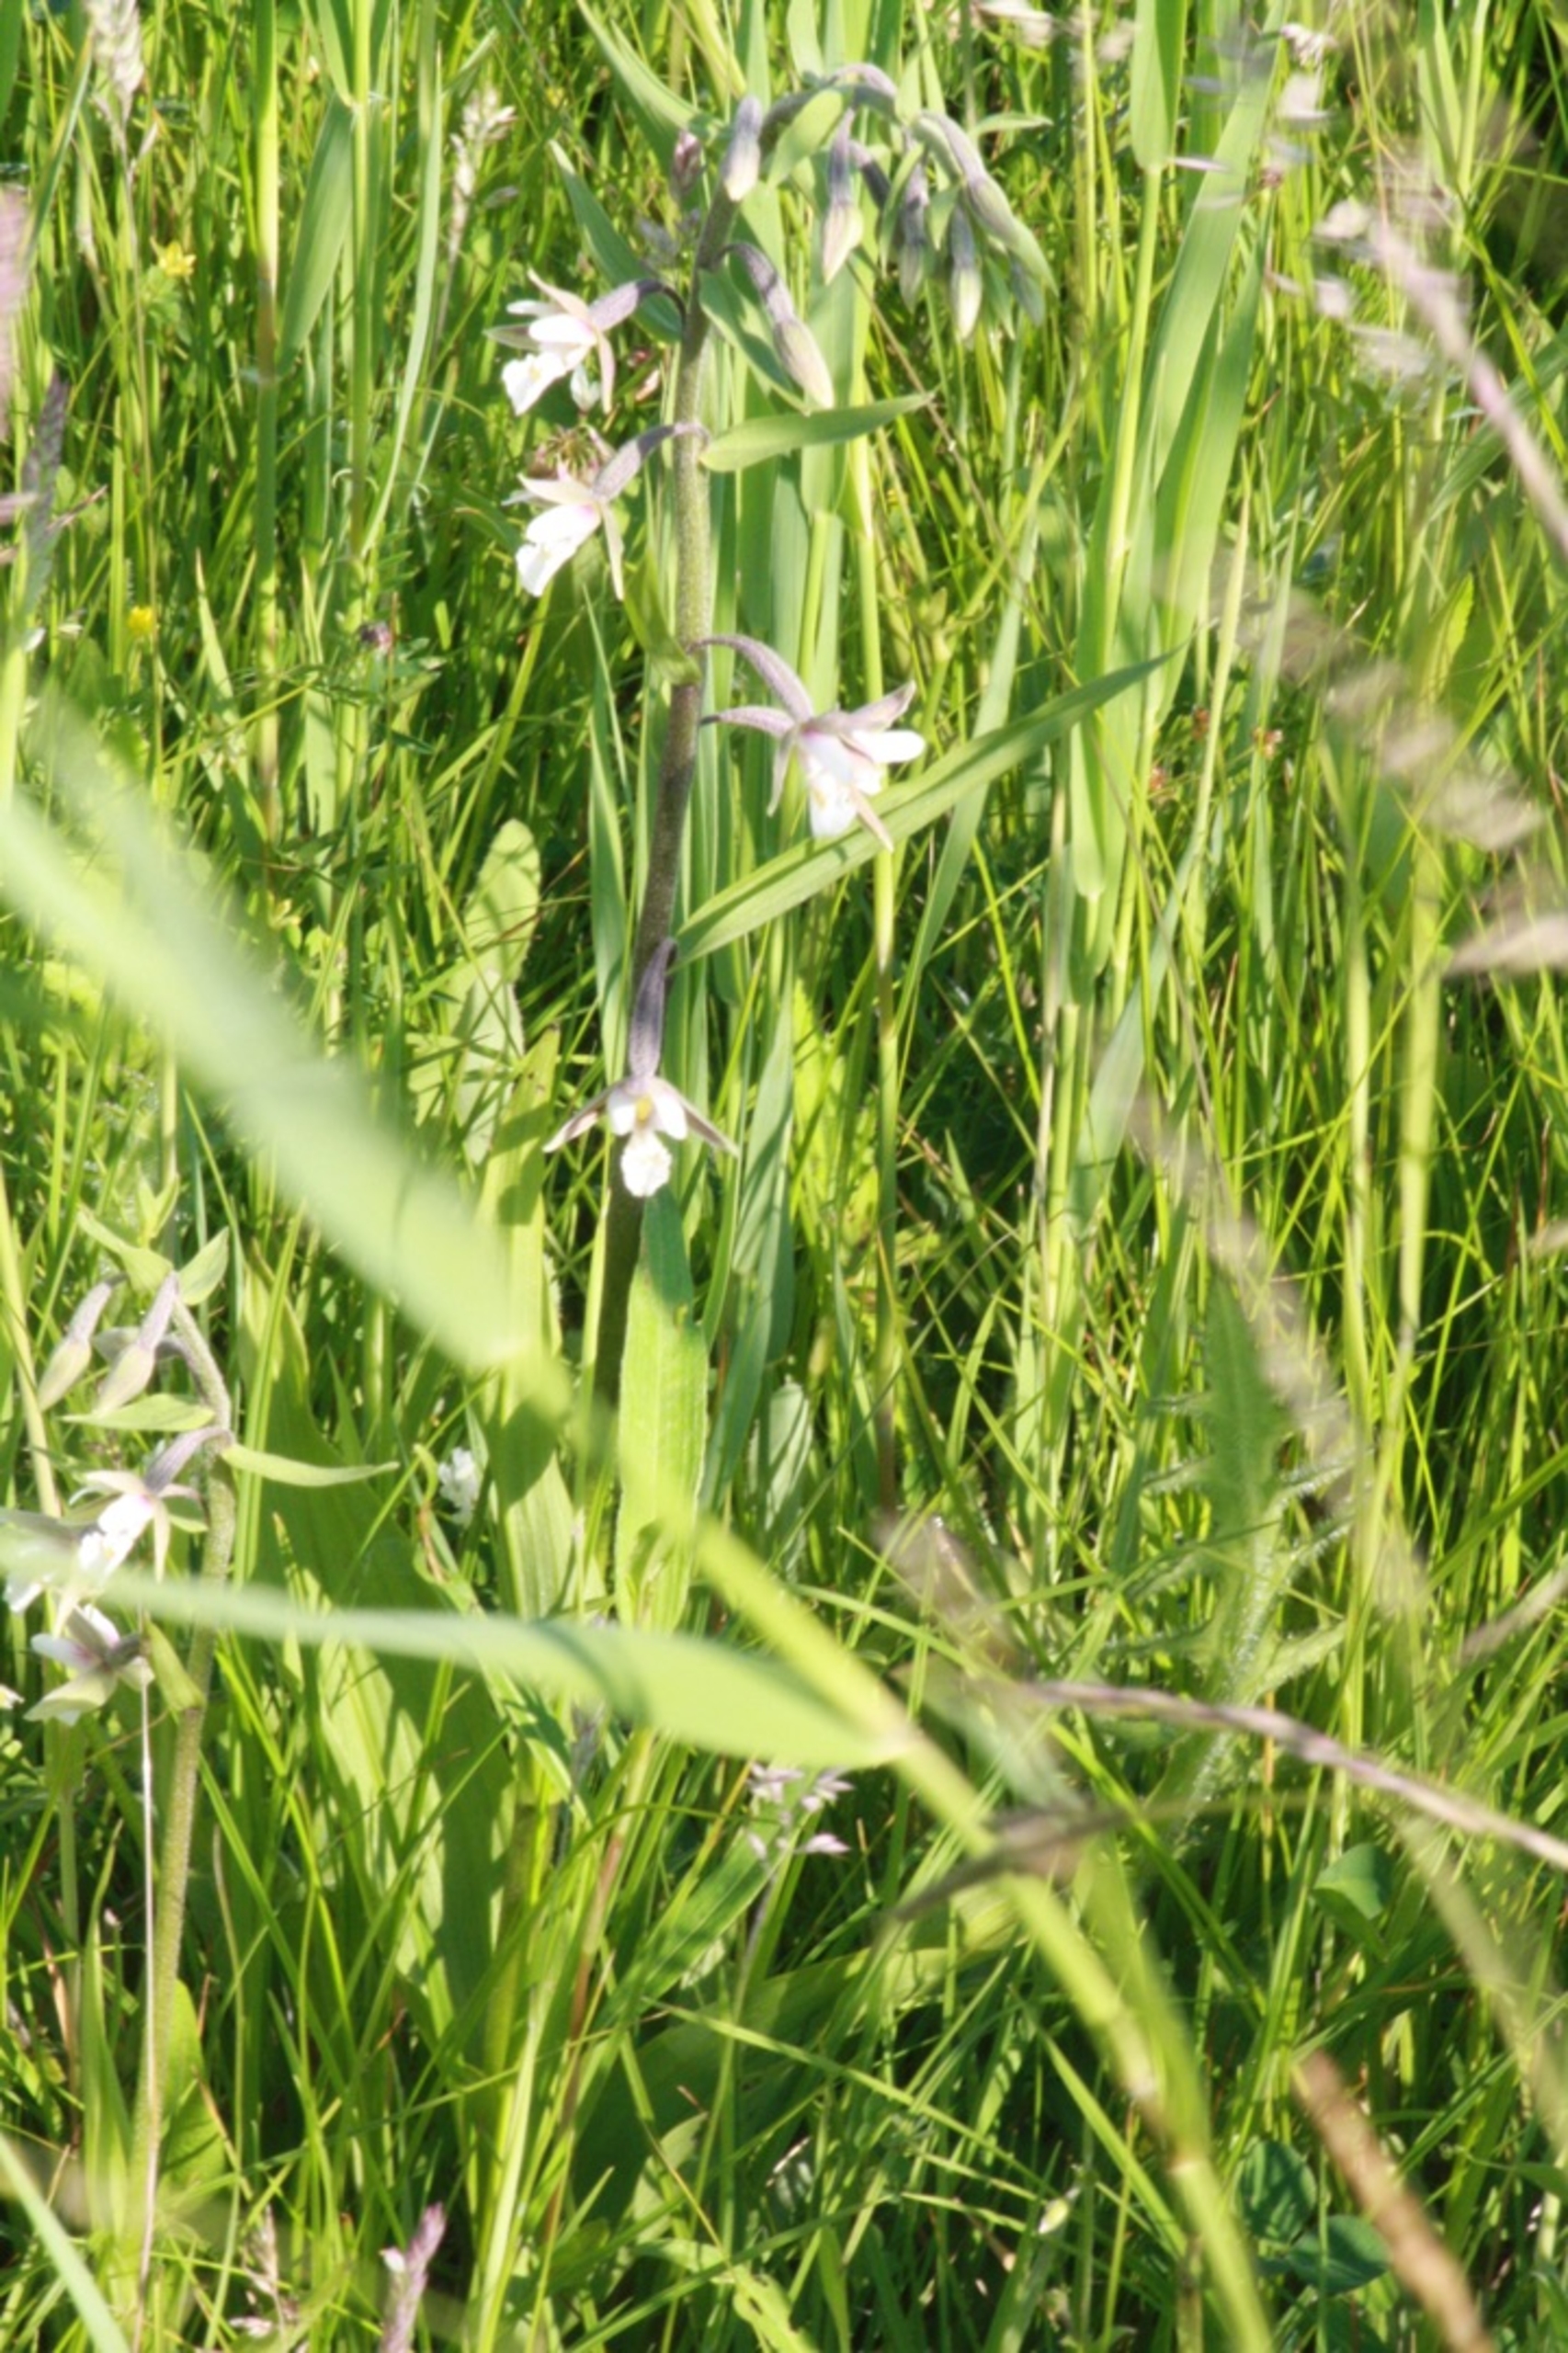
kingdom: Plantae
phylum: Tracheophyta
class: Liliopsida
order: Asparagales
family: Orchidaceae
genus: Epipactis
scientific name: Epipactis palustris
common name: Sump-hullæbe
